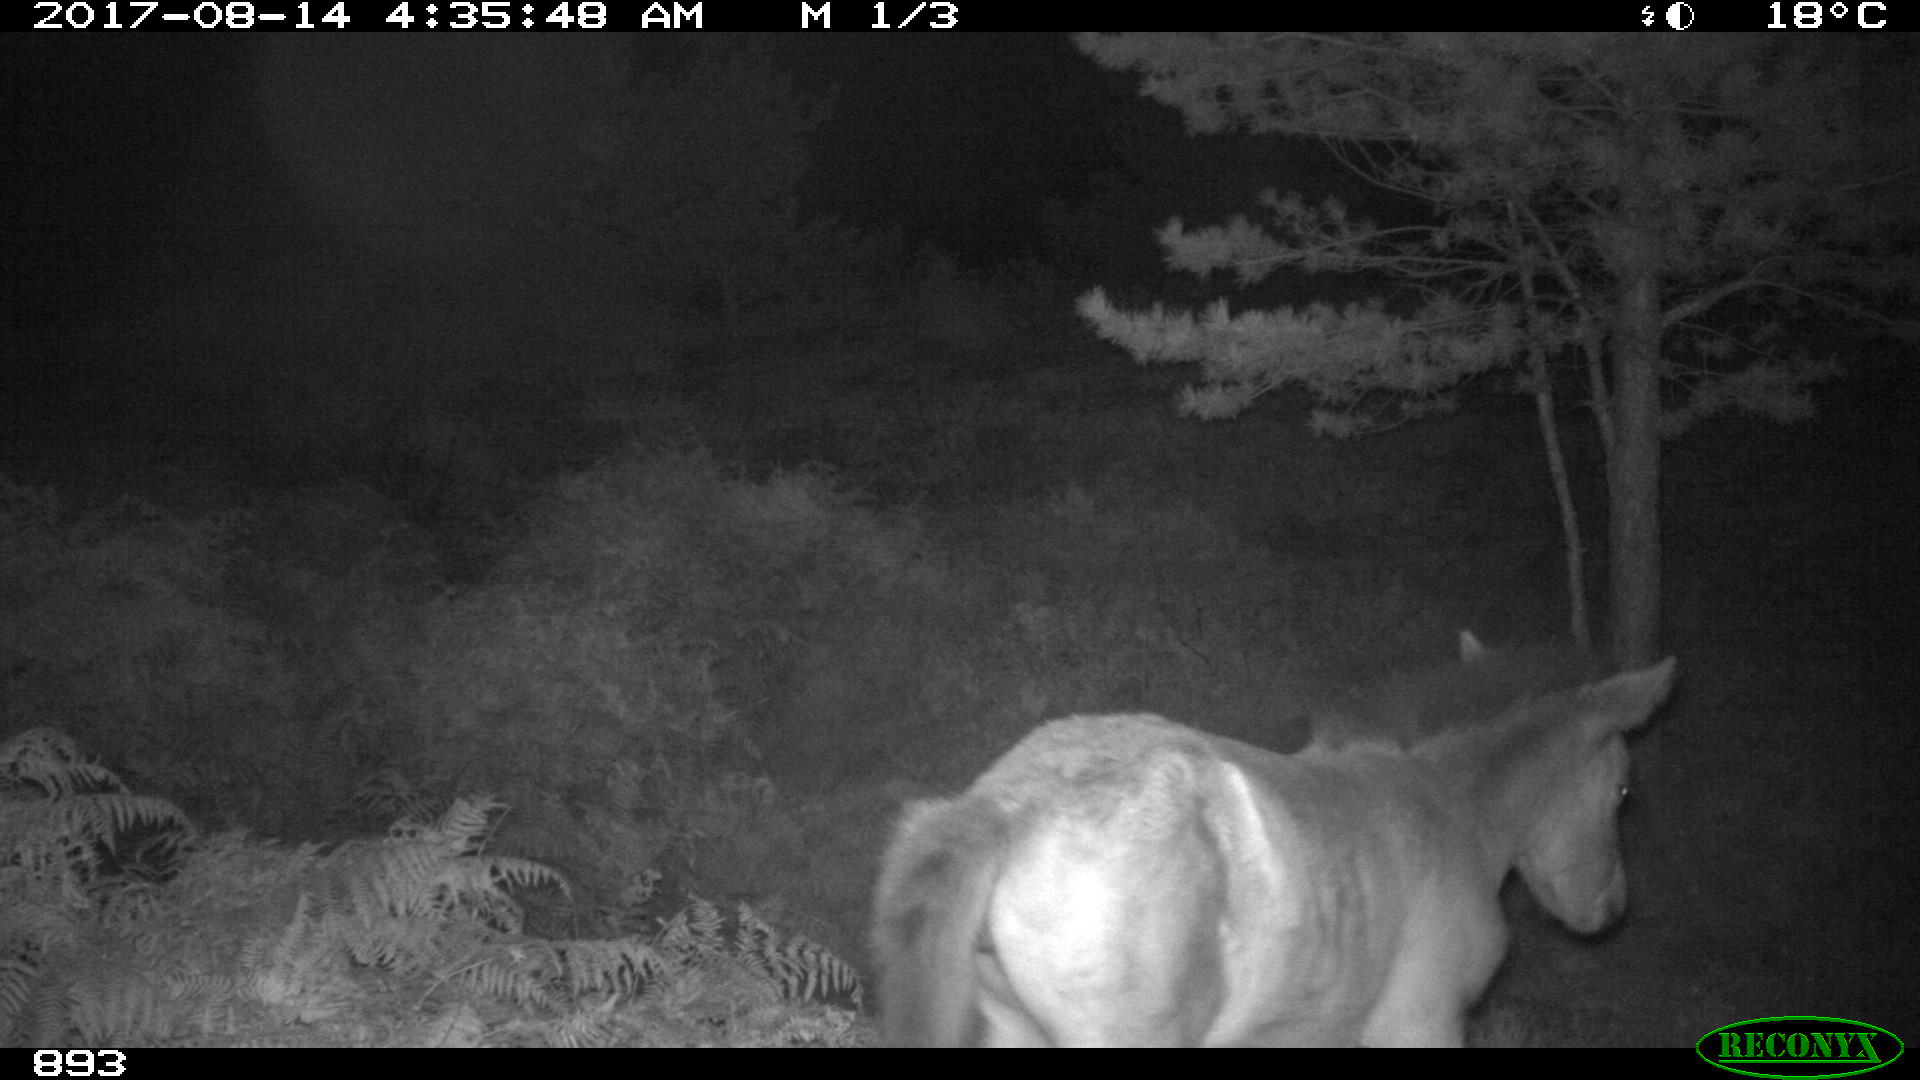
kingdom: Animalia
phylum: Chordata
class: Mammalia
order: Perissodactyla
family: Equidae
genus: Equus
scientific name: Equus caballus
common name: Horse
